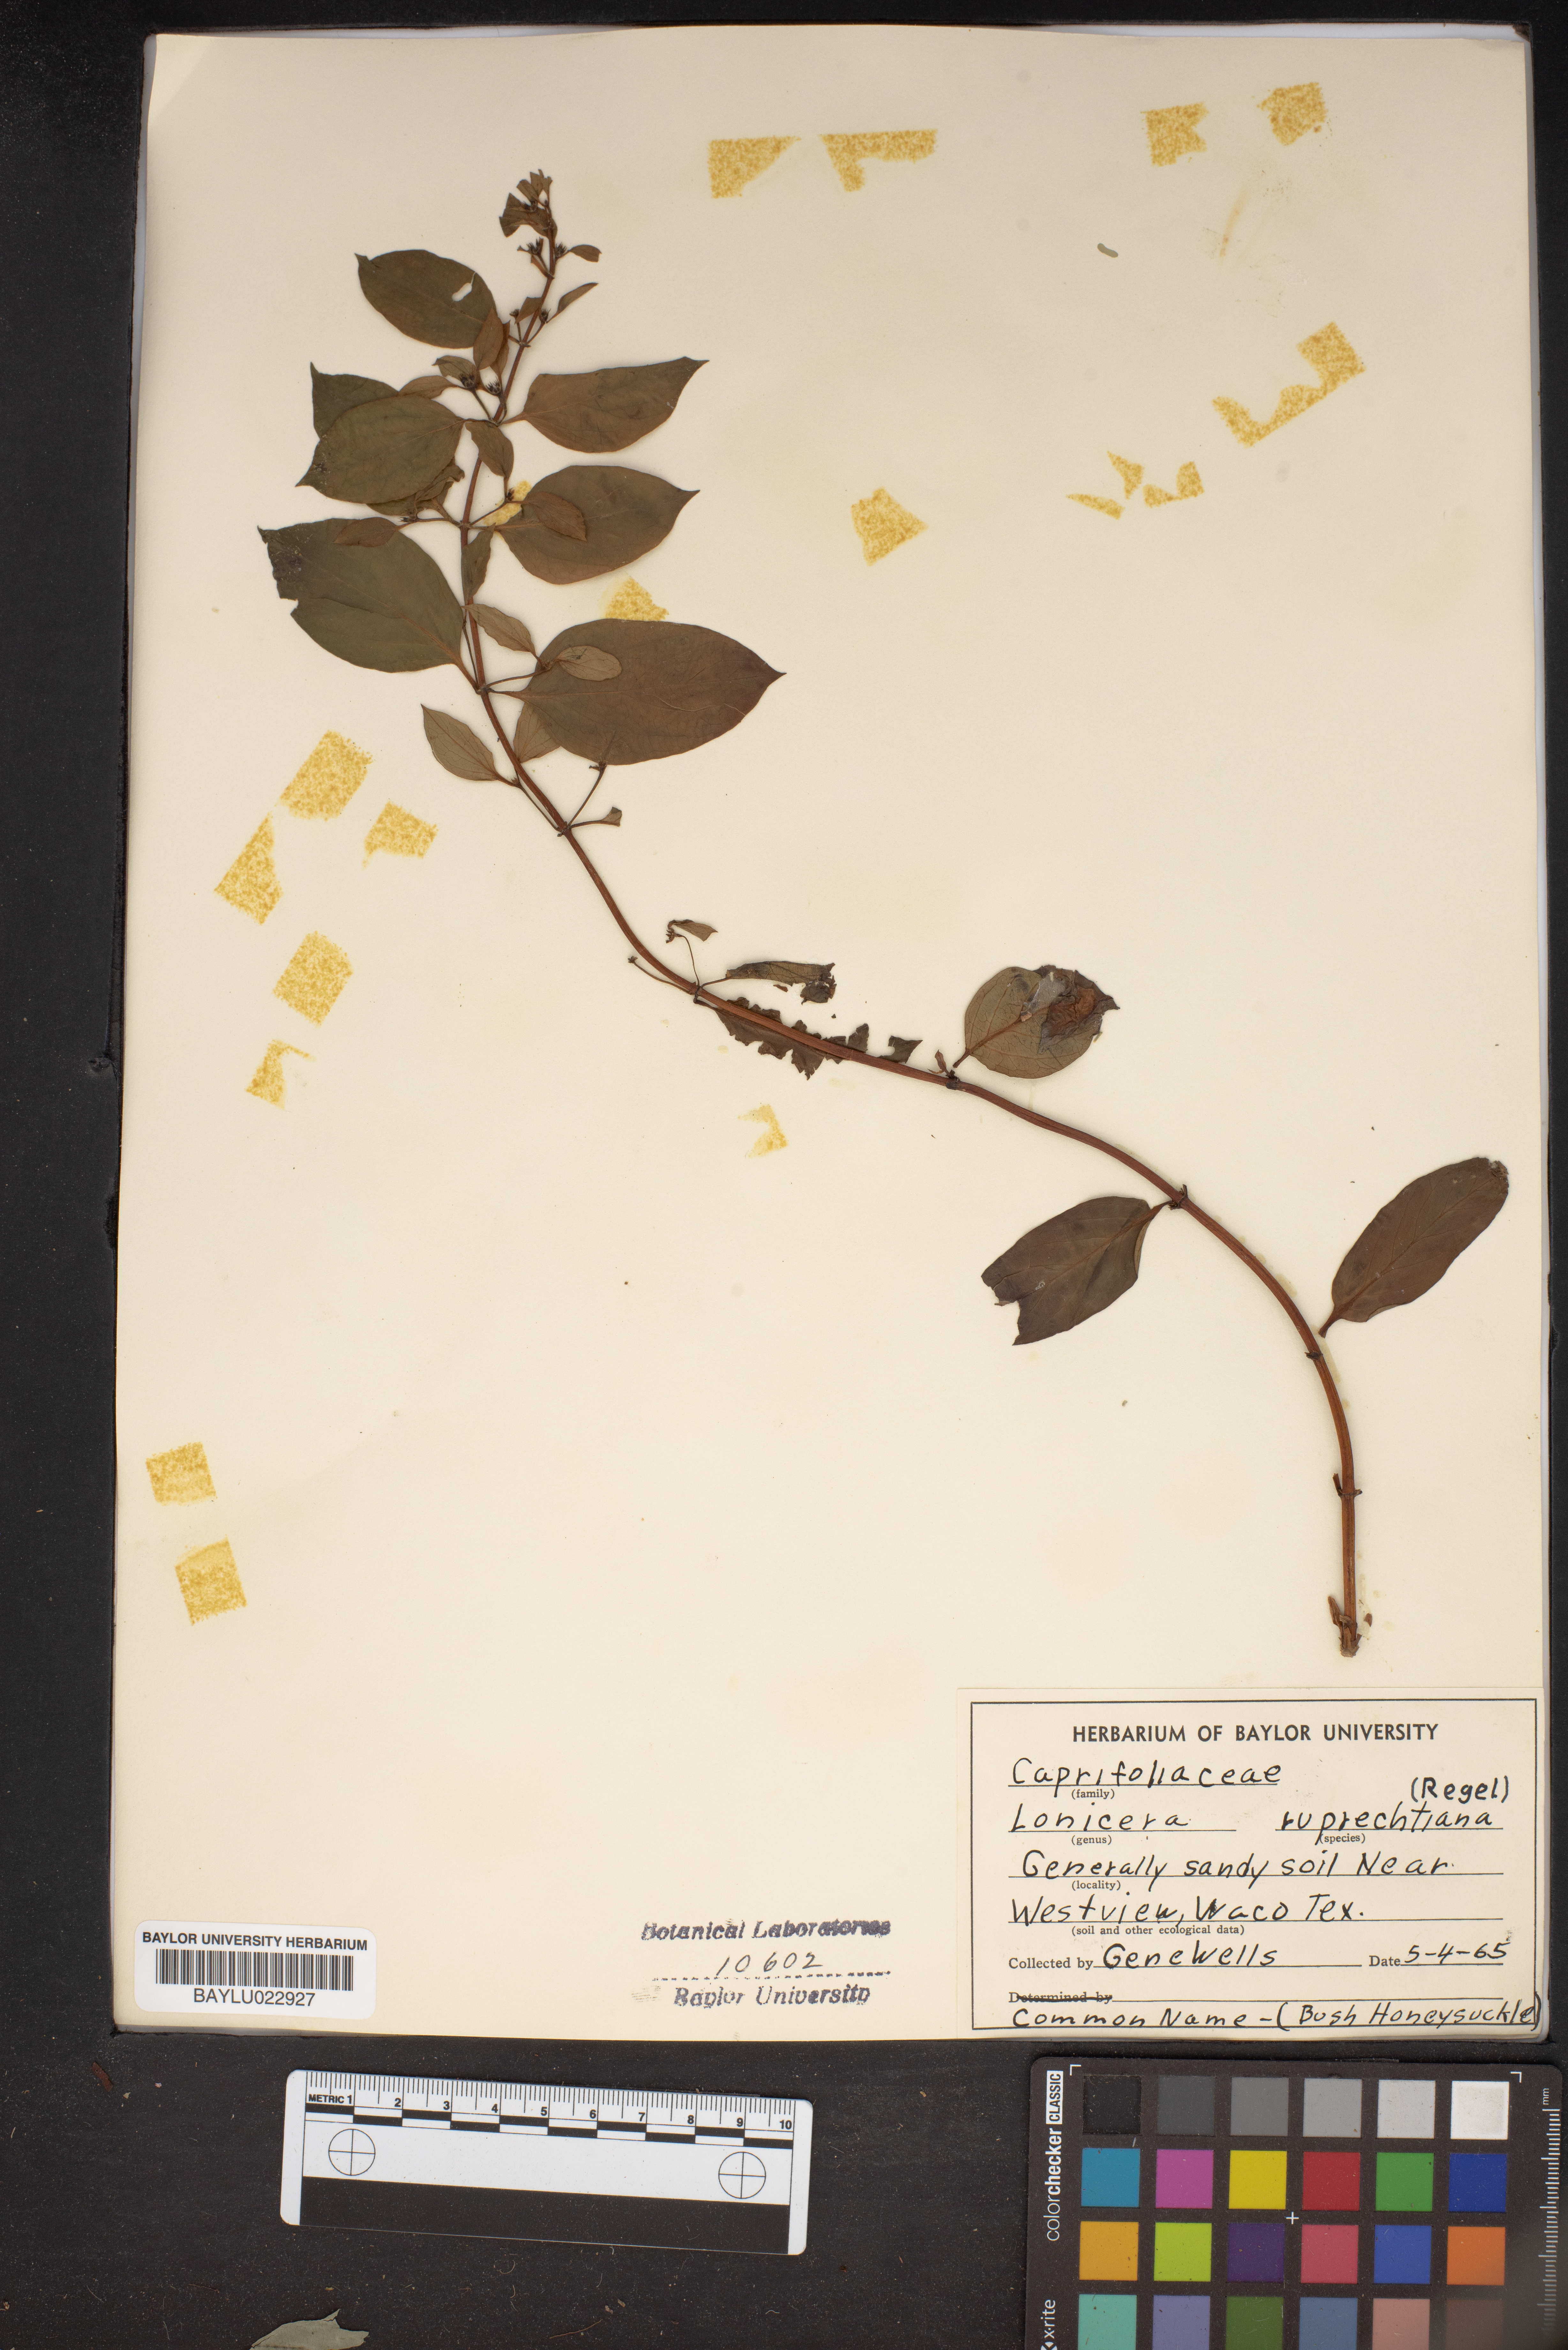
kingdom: Plantae
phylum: Tracheophyta
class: Magnoliopsida
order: Dipsacales
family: Caprifoliaceae
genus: Lonicera
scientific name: Lonicera ruprechtiana
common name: Manchurian honeysuckle
